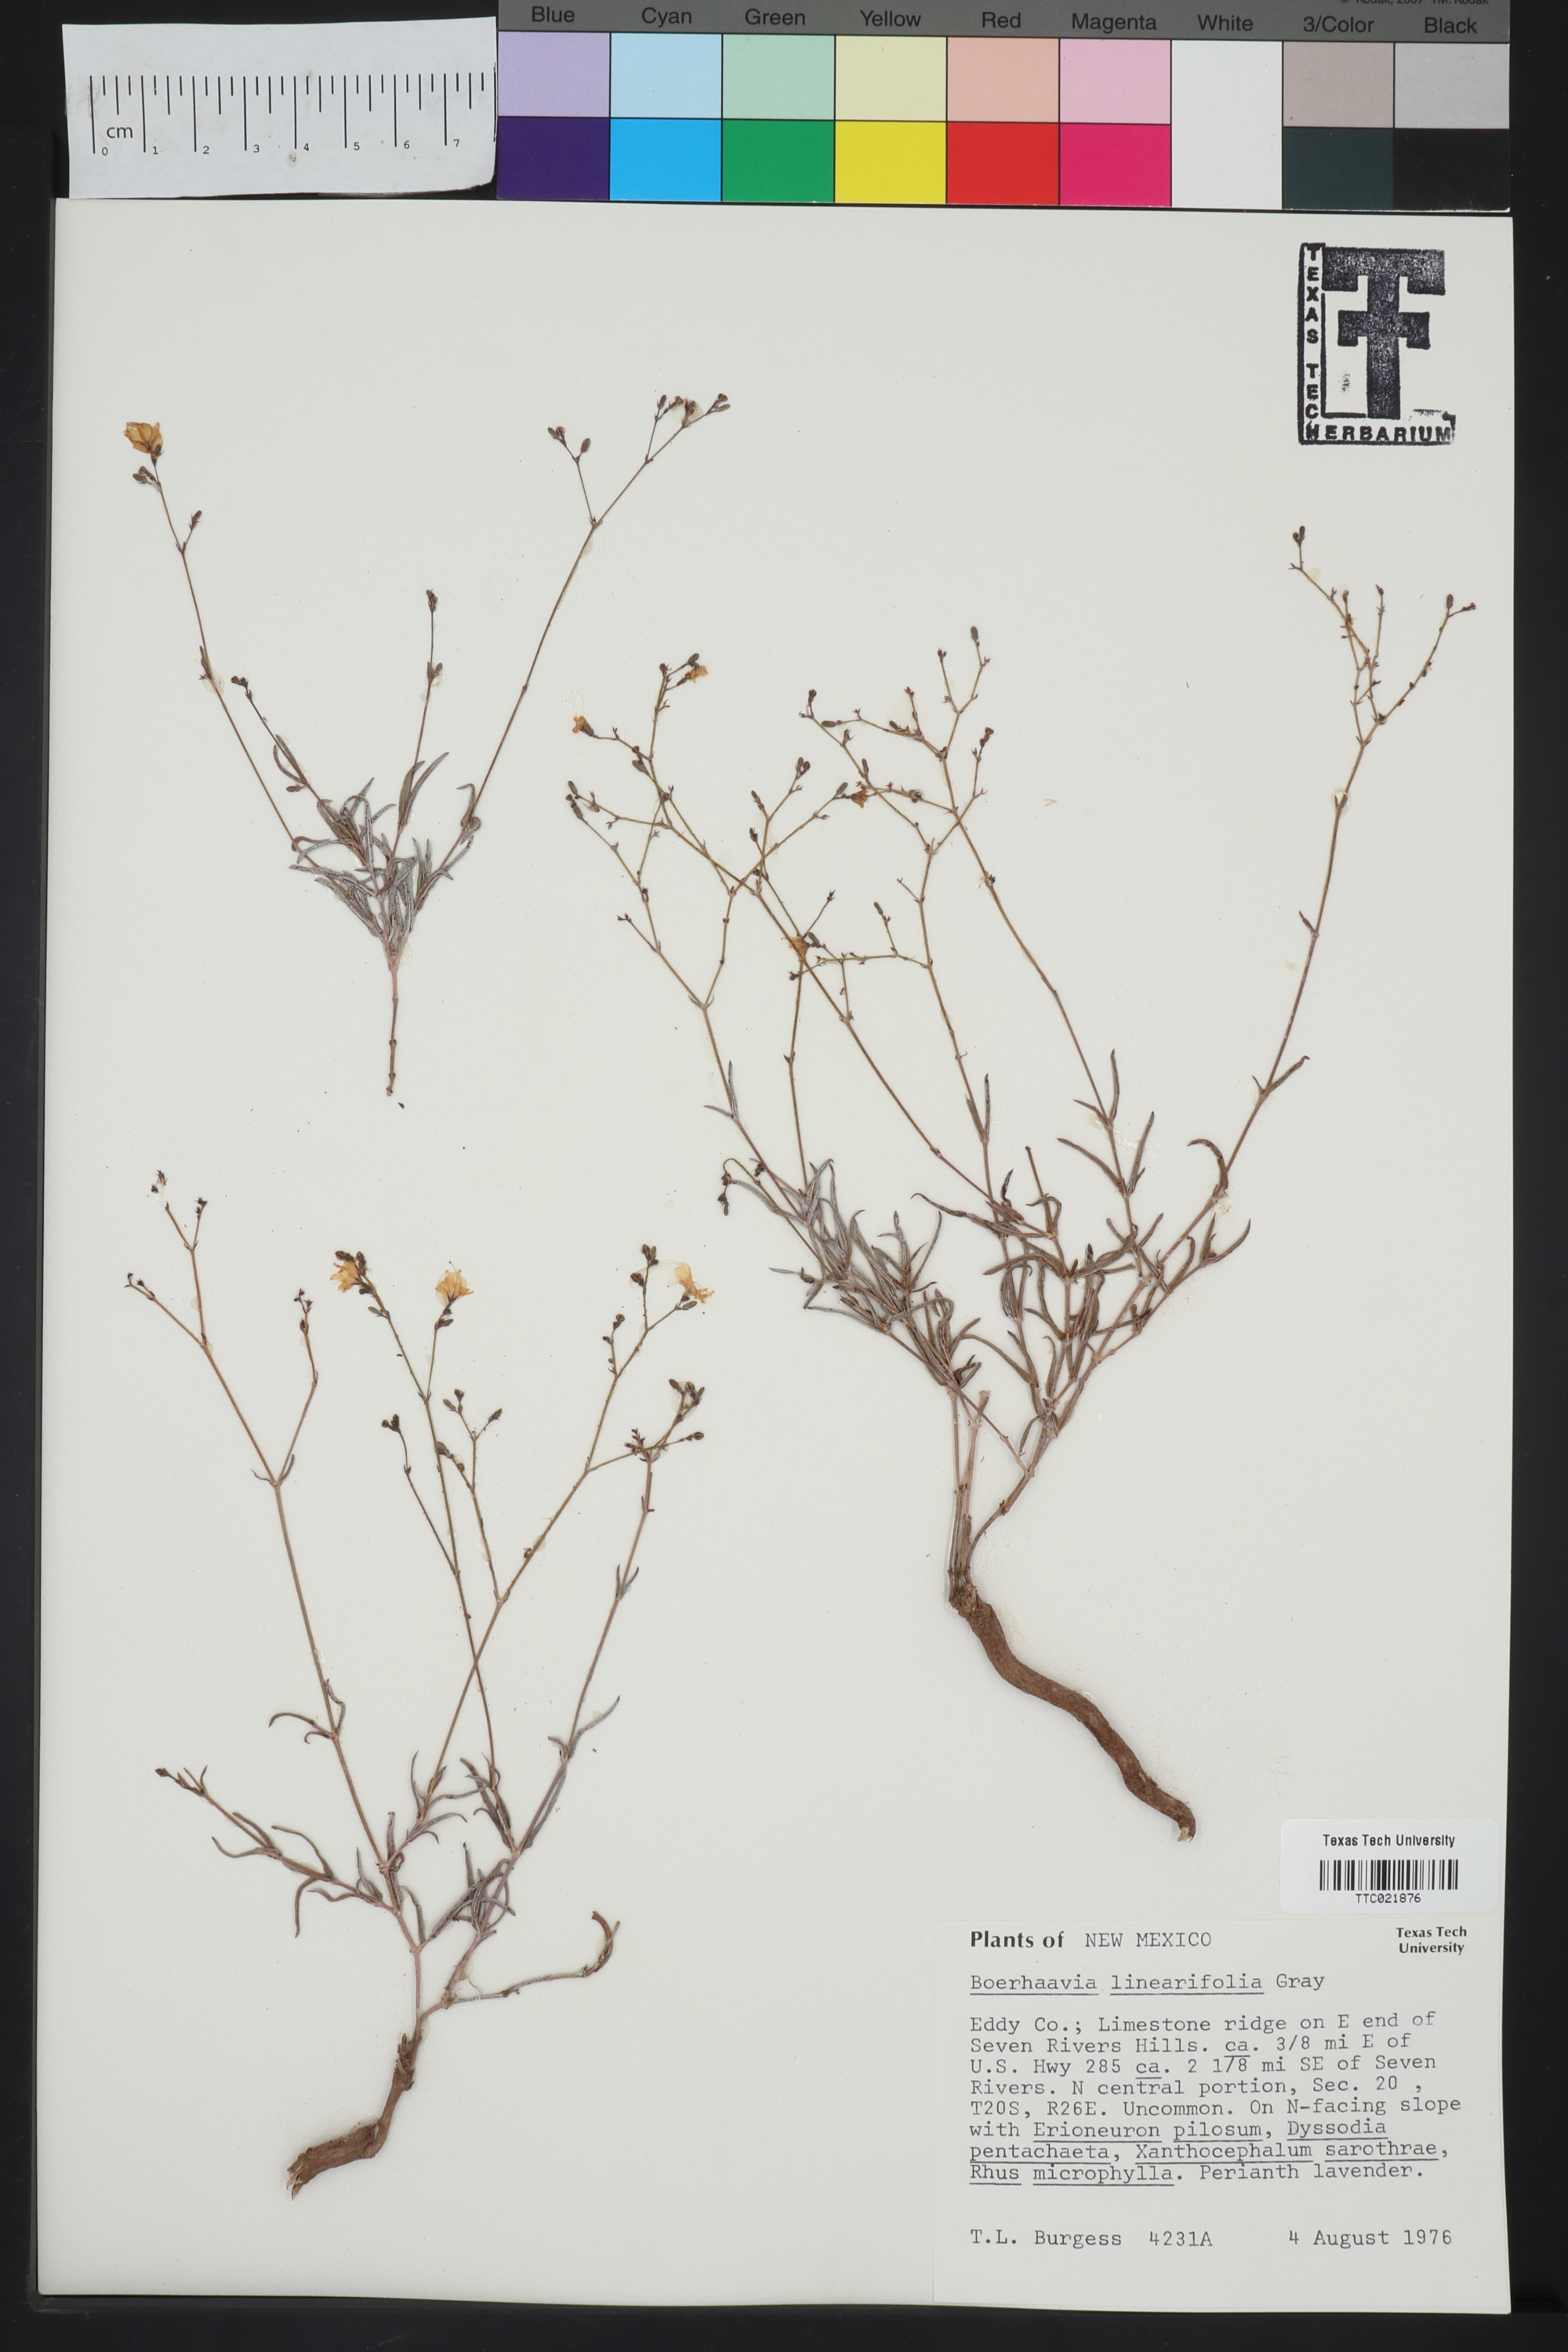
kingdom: Plantae
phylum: Tracheophyta
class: Magnoliopsida
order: Caryophyllales
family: Nyctaginaceae
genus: Boerhavia
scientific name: Boerhavia linearifolia
